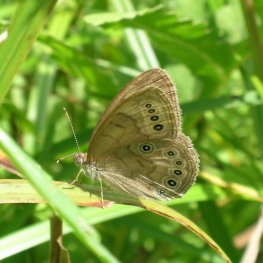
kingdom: Animalia
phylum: Arthropoda
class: Insecta
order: Lepidoptera
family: Nymphalidae
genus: Lethe
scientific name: Lethe eurydice
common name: Eyed Brown
